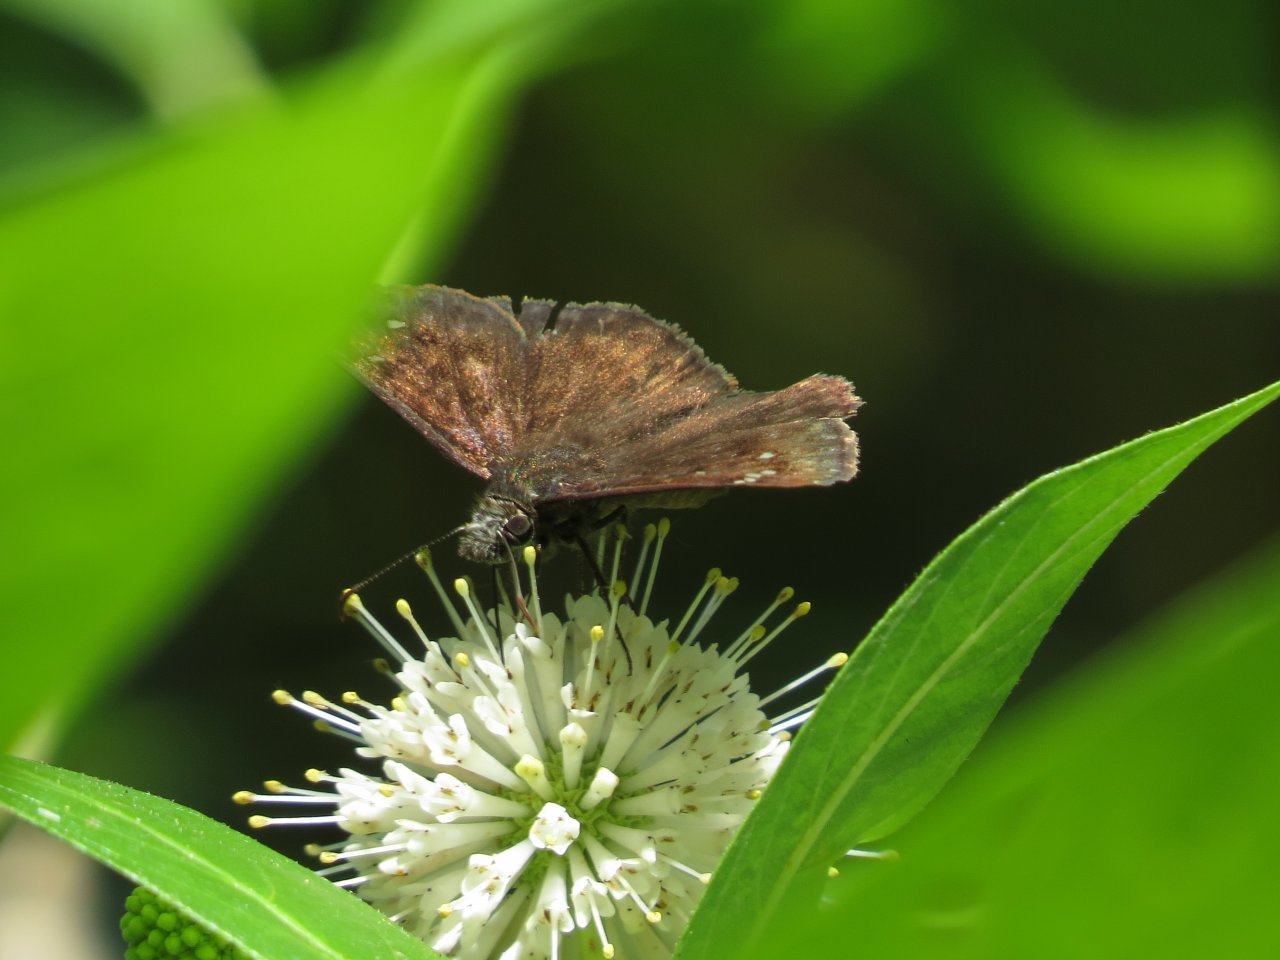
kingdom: Animalia
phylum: Arthropoda
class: Insecta
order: Lepidoptera
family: Hesperiidae
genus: Gesta
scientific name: Gesta
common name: Horace's Duskywing
